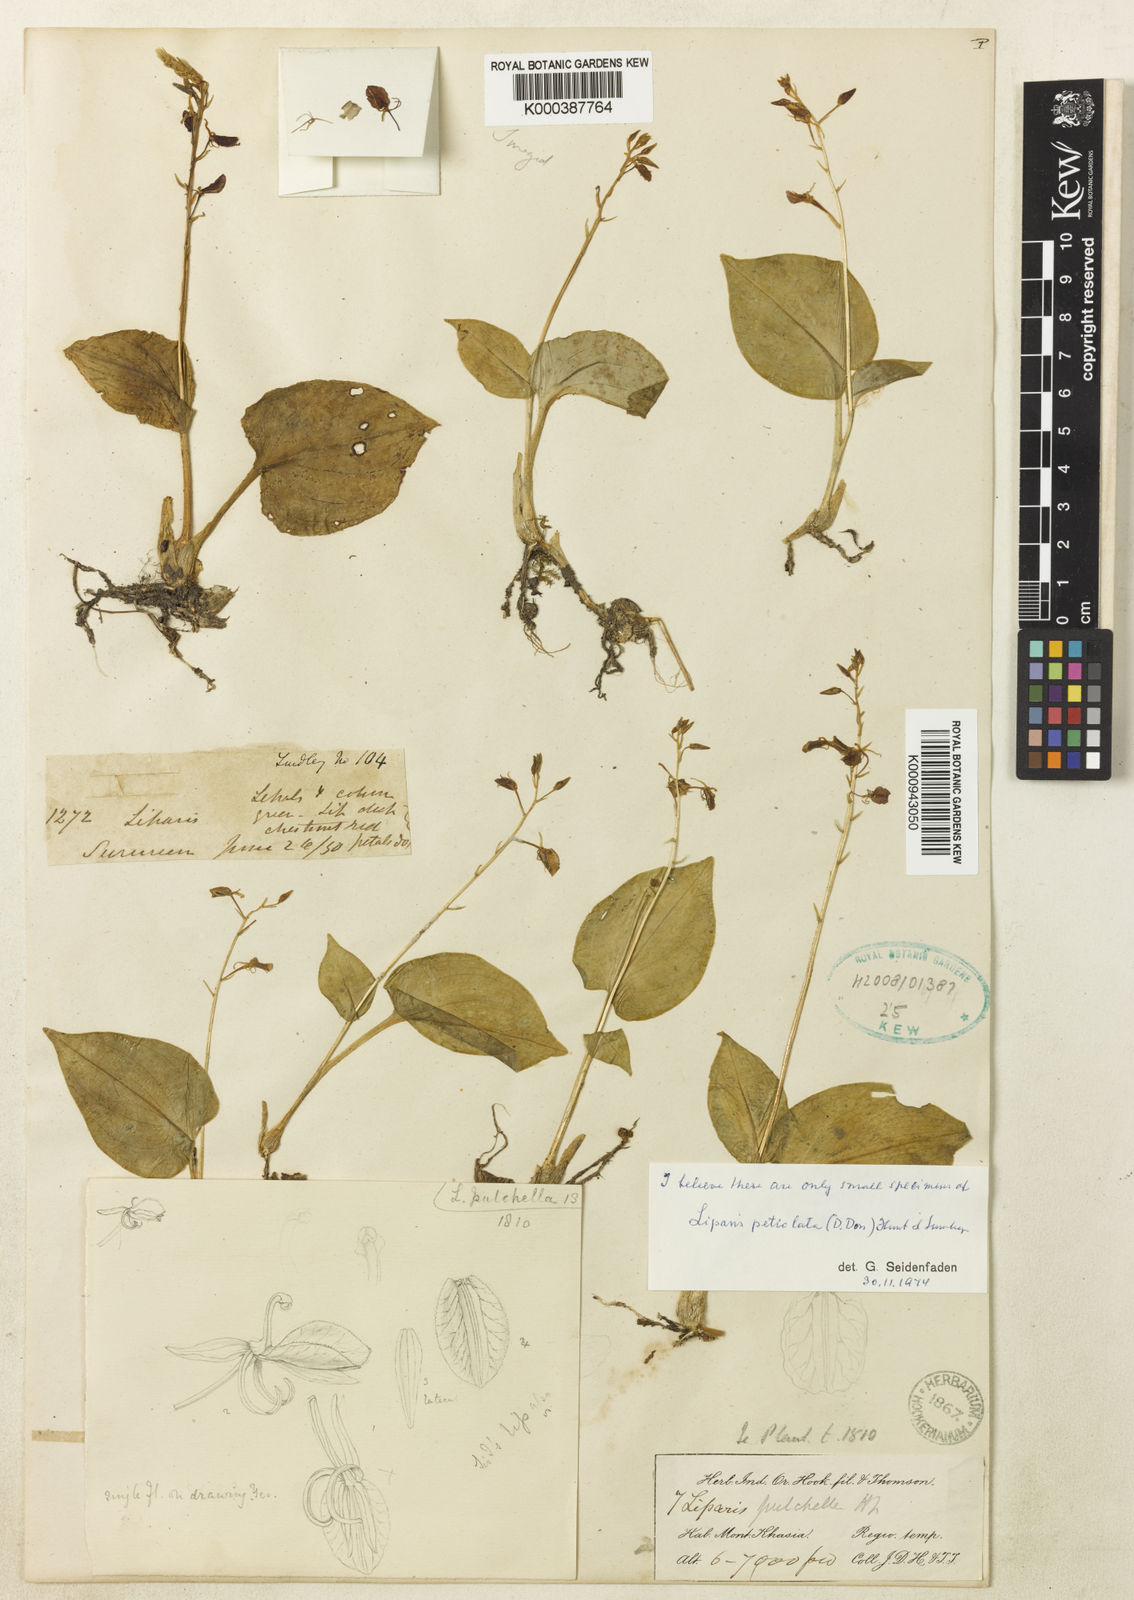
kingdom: Plantae
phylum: Tracheophyta
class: Liliopsida
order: Asparagales
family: Orchidaceae
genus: Liparis
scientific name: Liparis petiolata
